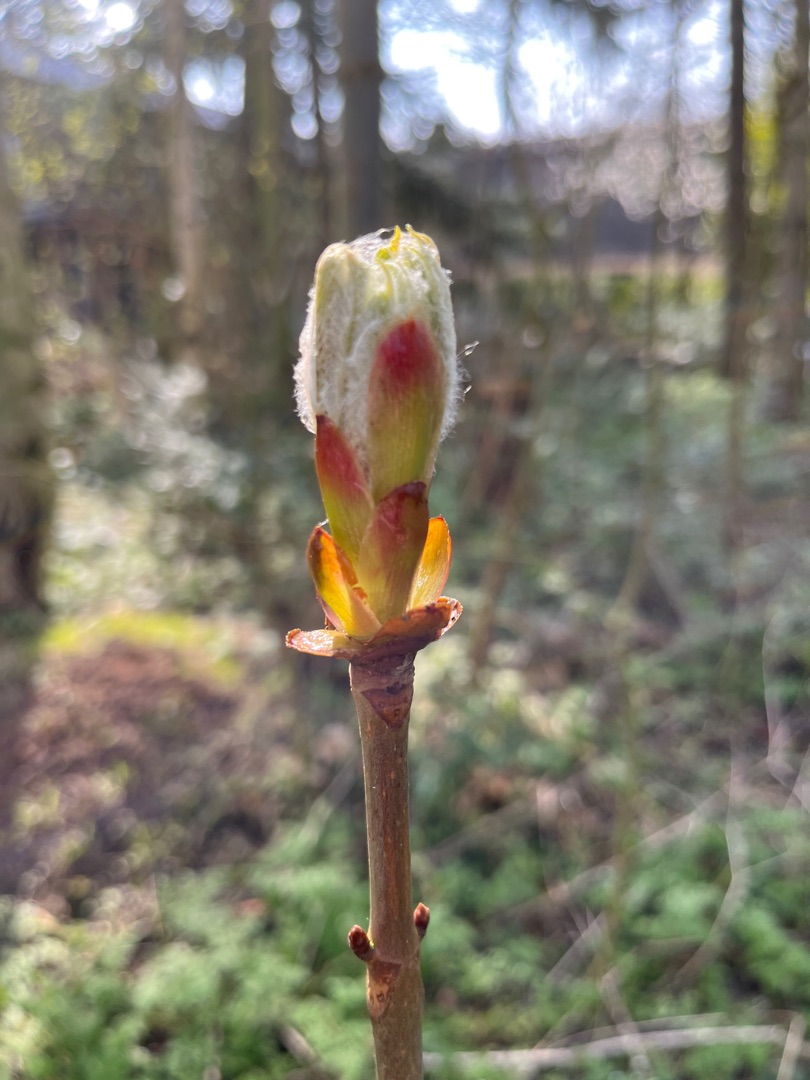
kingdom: Plantae
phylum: Tracheophyta
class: Magnoliopsida
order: Sapindales
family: Sapindaceae
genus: Aesculus
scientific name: Aesculus hippocastanum
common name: Hestekastanie
